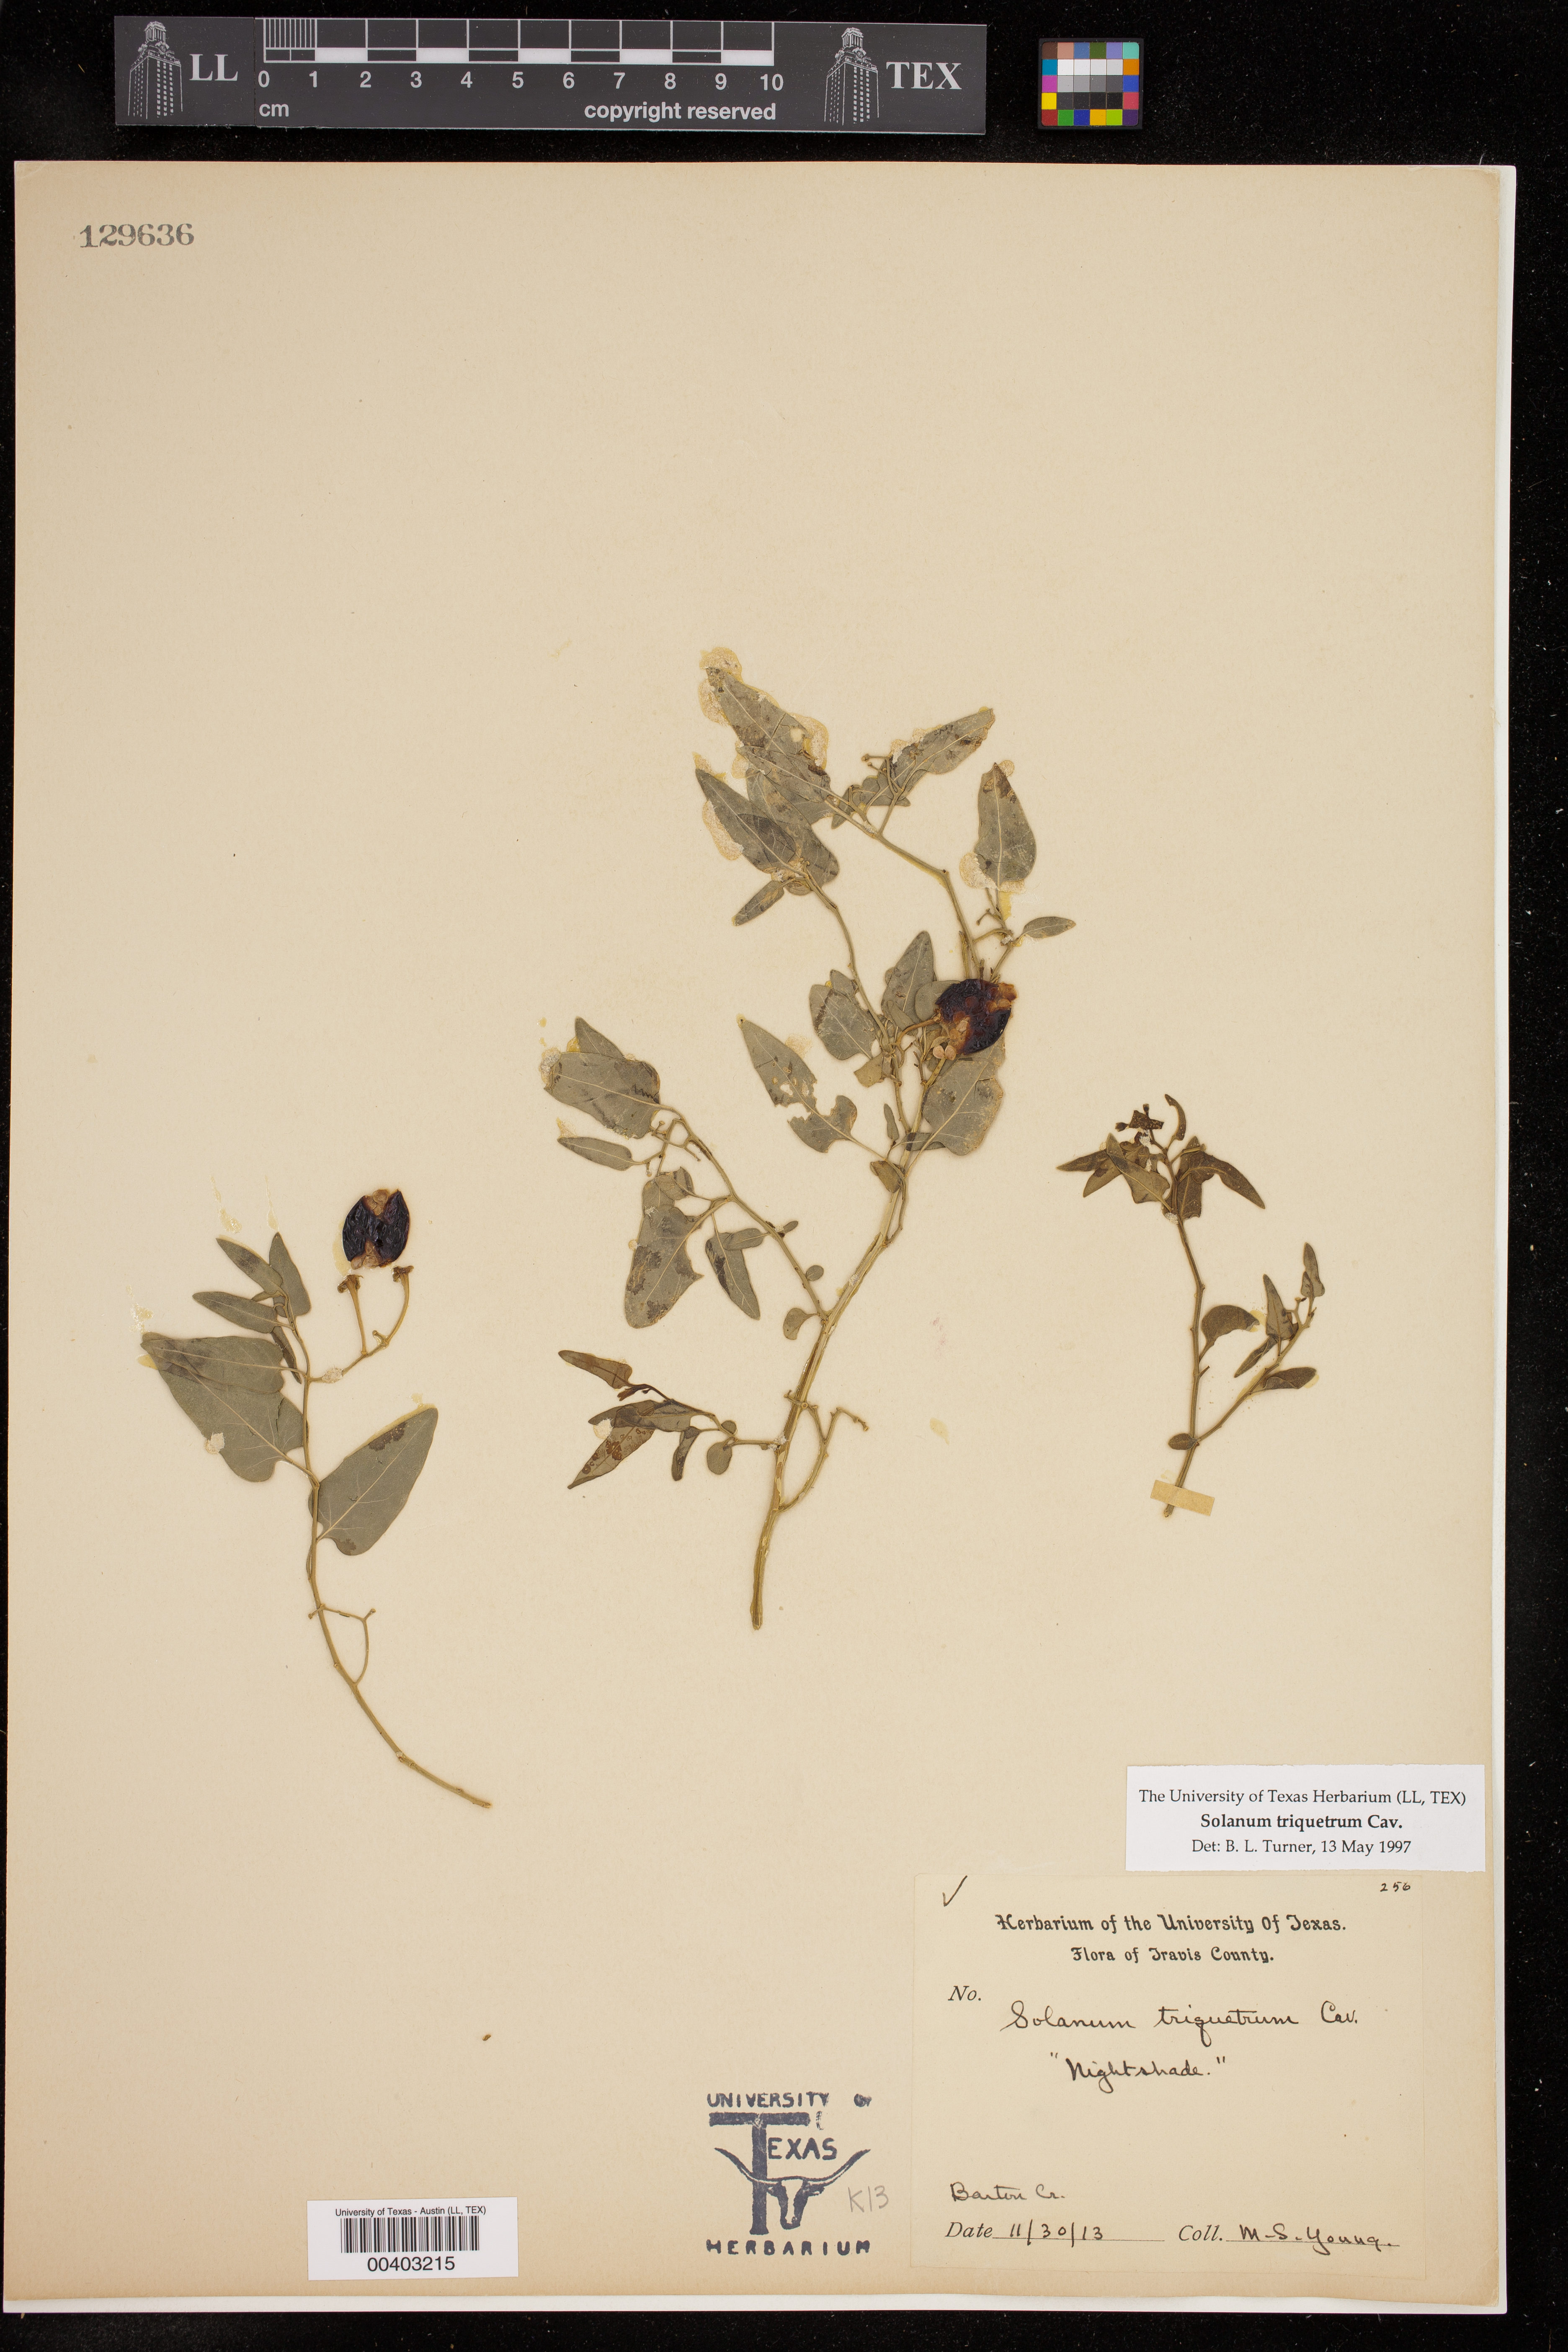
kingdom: Plantae
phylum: Tracheophyta
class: Magnoliopsida
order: Solanales
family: Solanaceae
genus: Solanum
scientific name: Solanum triquetrum
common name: Texas nightshade
